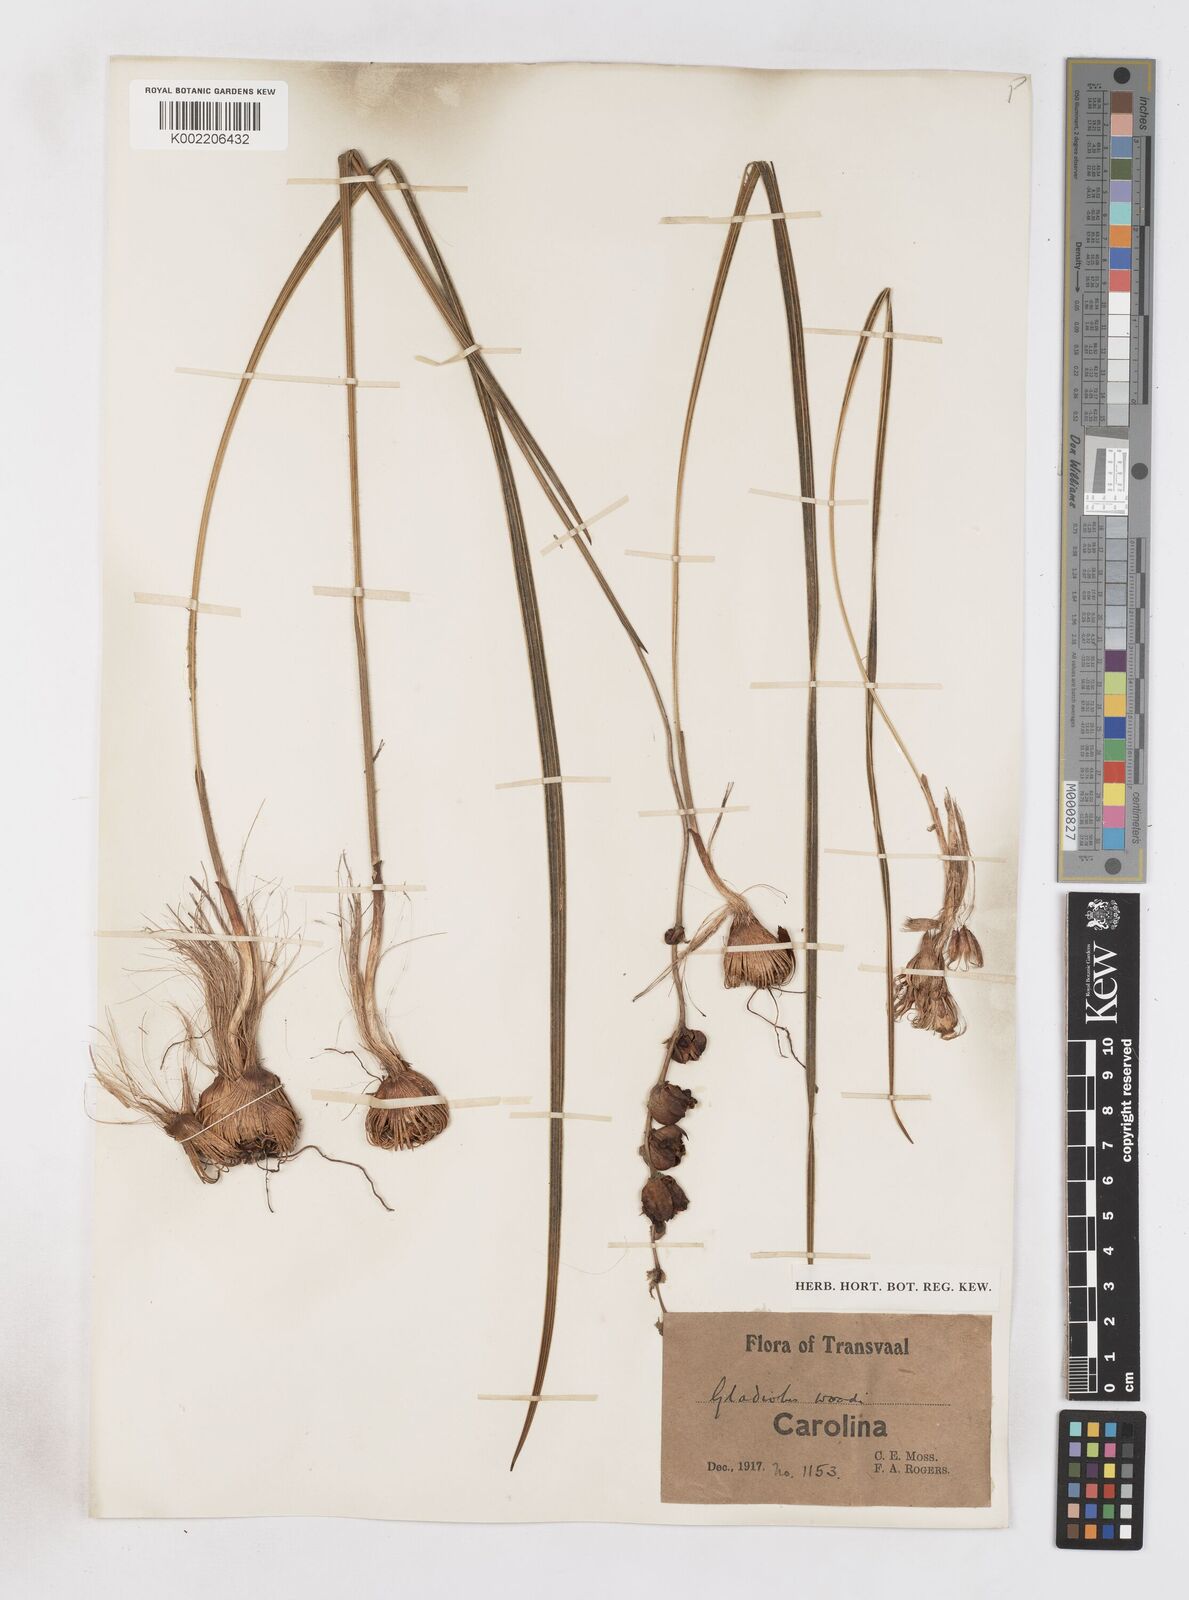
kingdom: Plantae
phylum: Tracheophyta
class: Liliopsida
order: Asparagales
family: Iridaceae
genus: Gladiolus
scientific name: Gladiolus woodii
